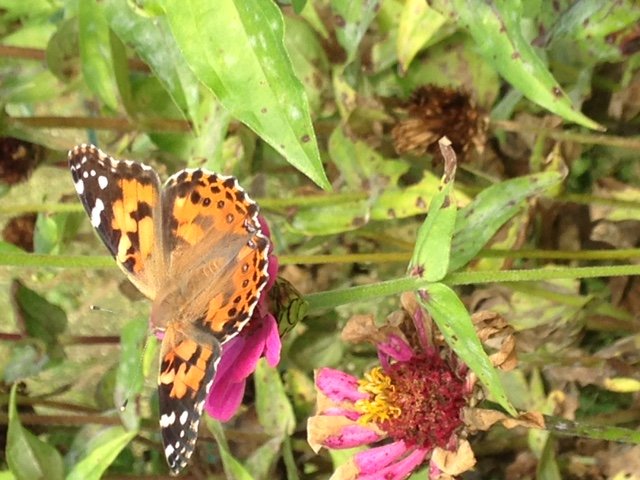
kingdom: Animalia
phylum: Arthropoda
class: Insecta
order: Lepidoptera
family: Nymphalidae
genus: Vanessa
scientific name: Vanessa cardui
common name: Painted Lady
